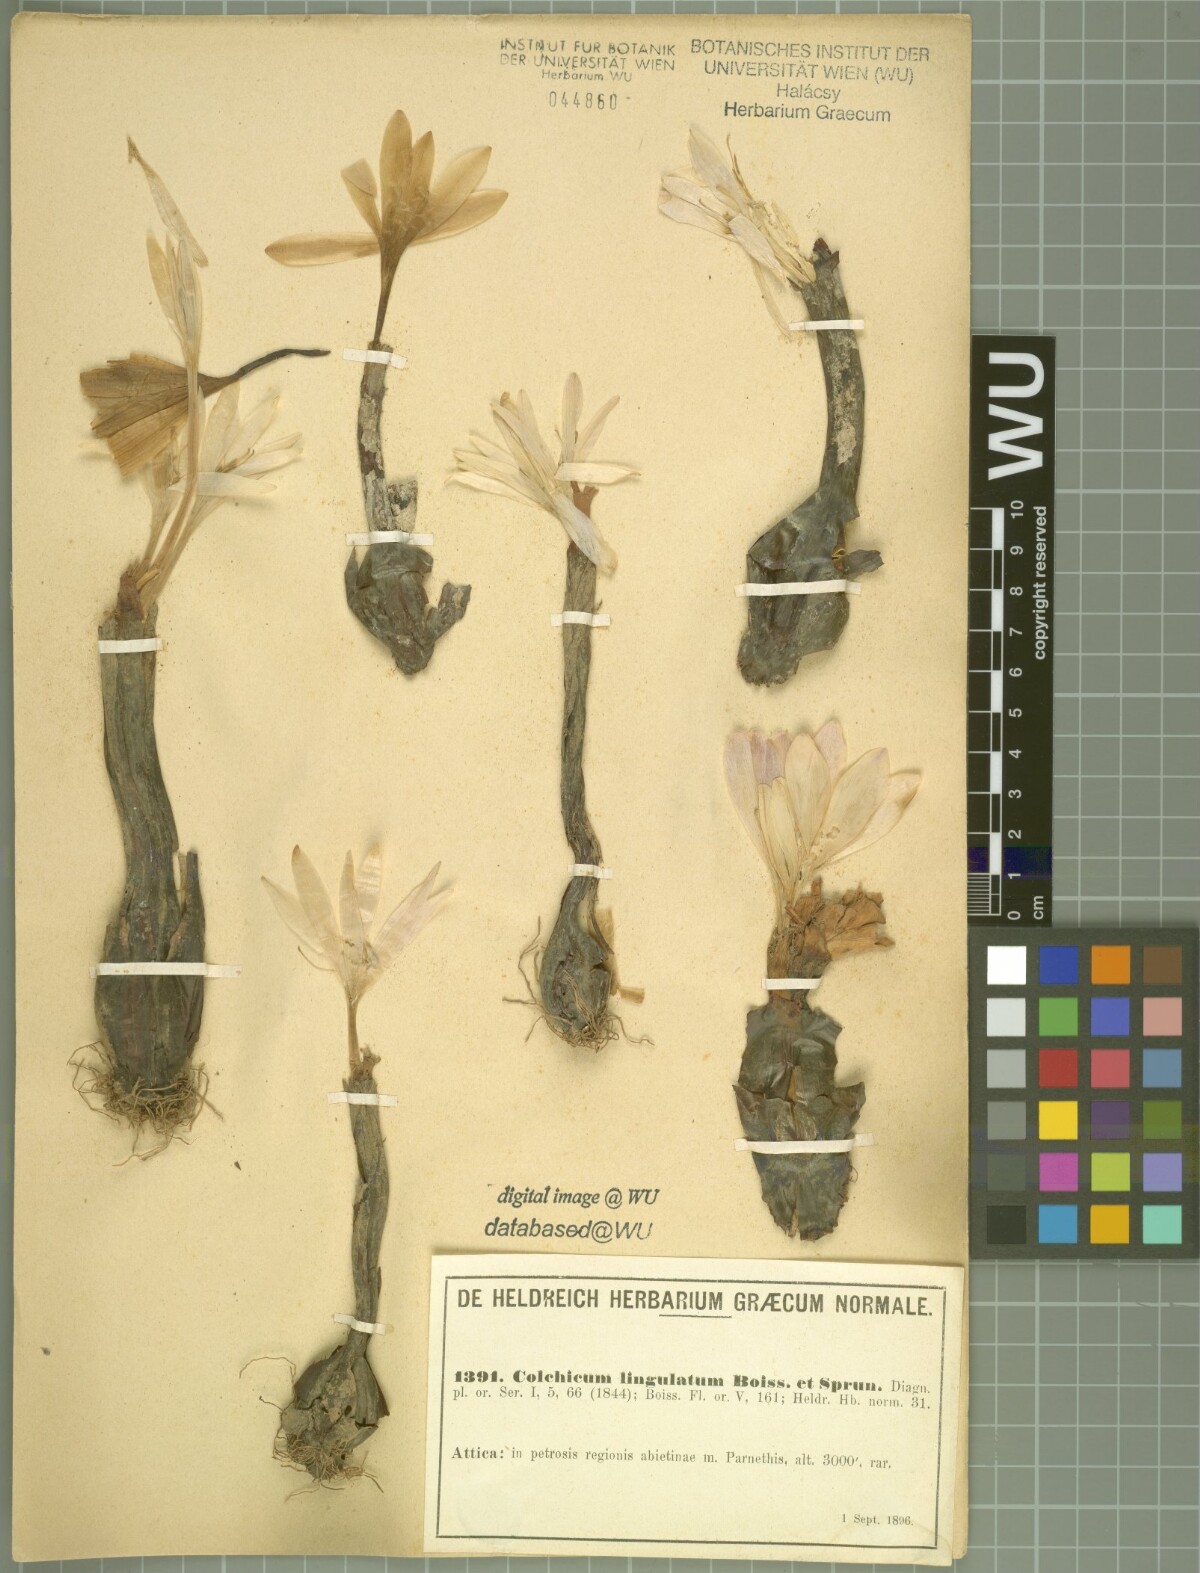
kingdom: Plantae
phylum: Tracheophyta
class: Liliopsida
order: Liliales
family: Colchicaceae
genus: Colchicum
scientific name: Colchicum lingulatum
